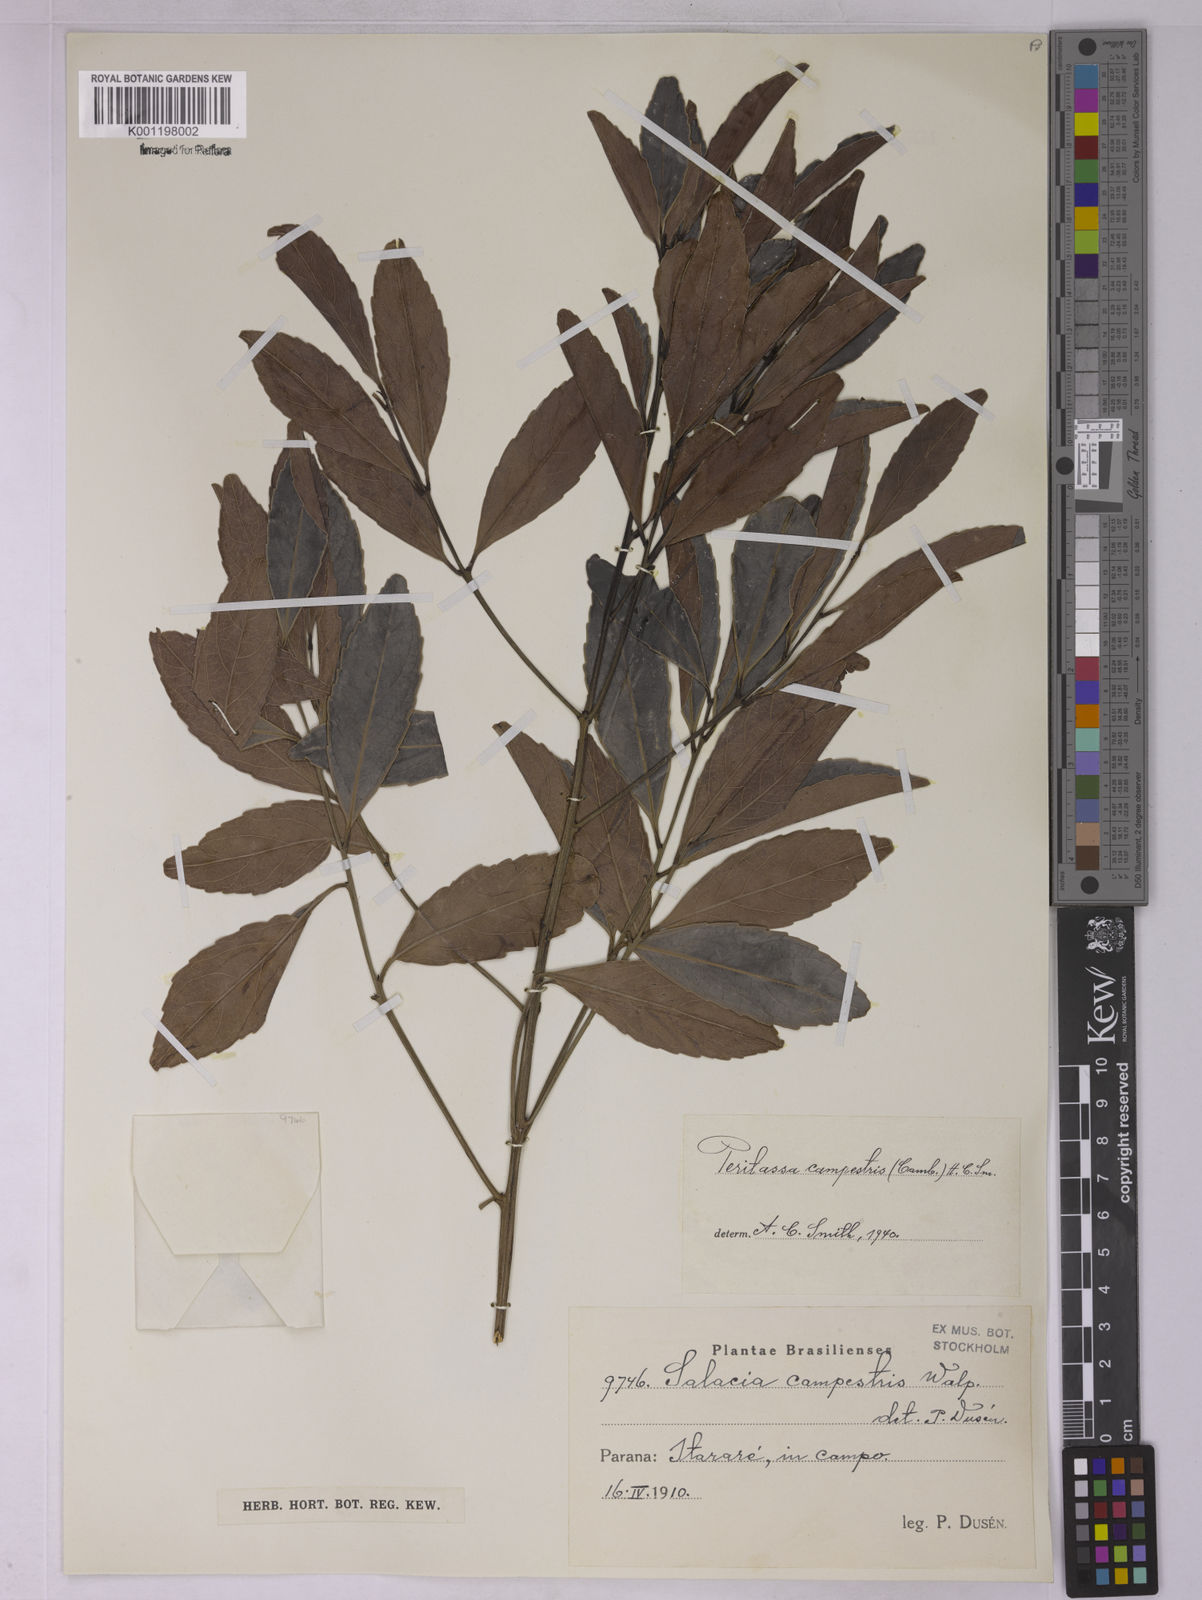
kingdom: Plantae
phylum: Tracheophyta
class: Magnoliopsida
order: Celastrales
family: Celastraceae
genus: Peritassa
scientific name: Peritassa campestris
